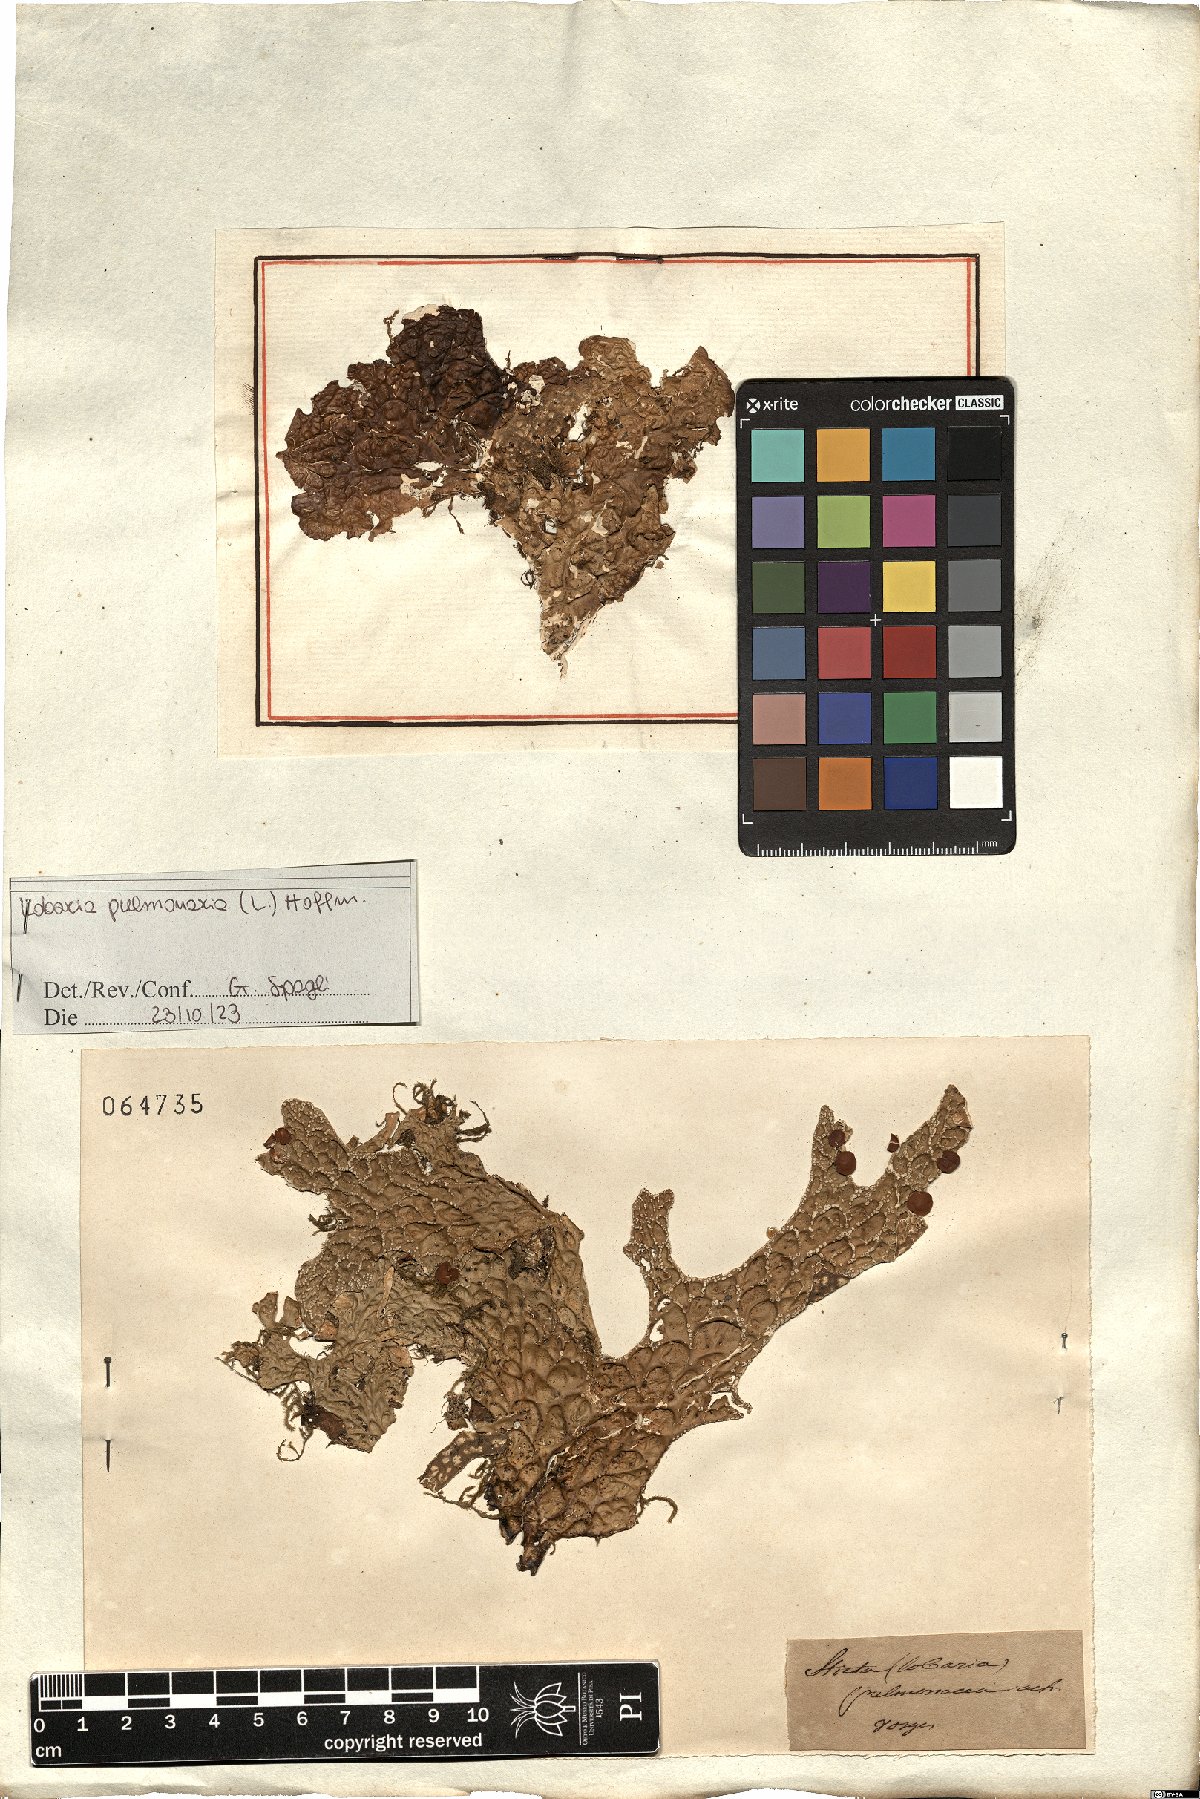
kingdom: Fungi
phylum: Ascomycota
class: Lecanoromycetes
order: Peltigerales
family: Lobariaceae
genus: Lobaria
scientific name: Lobaria pulmonaria
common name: Lungwort
